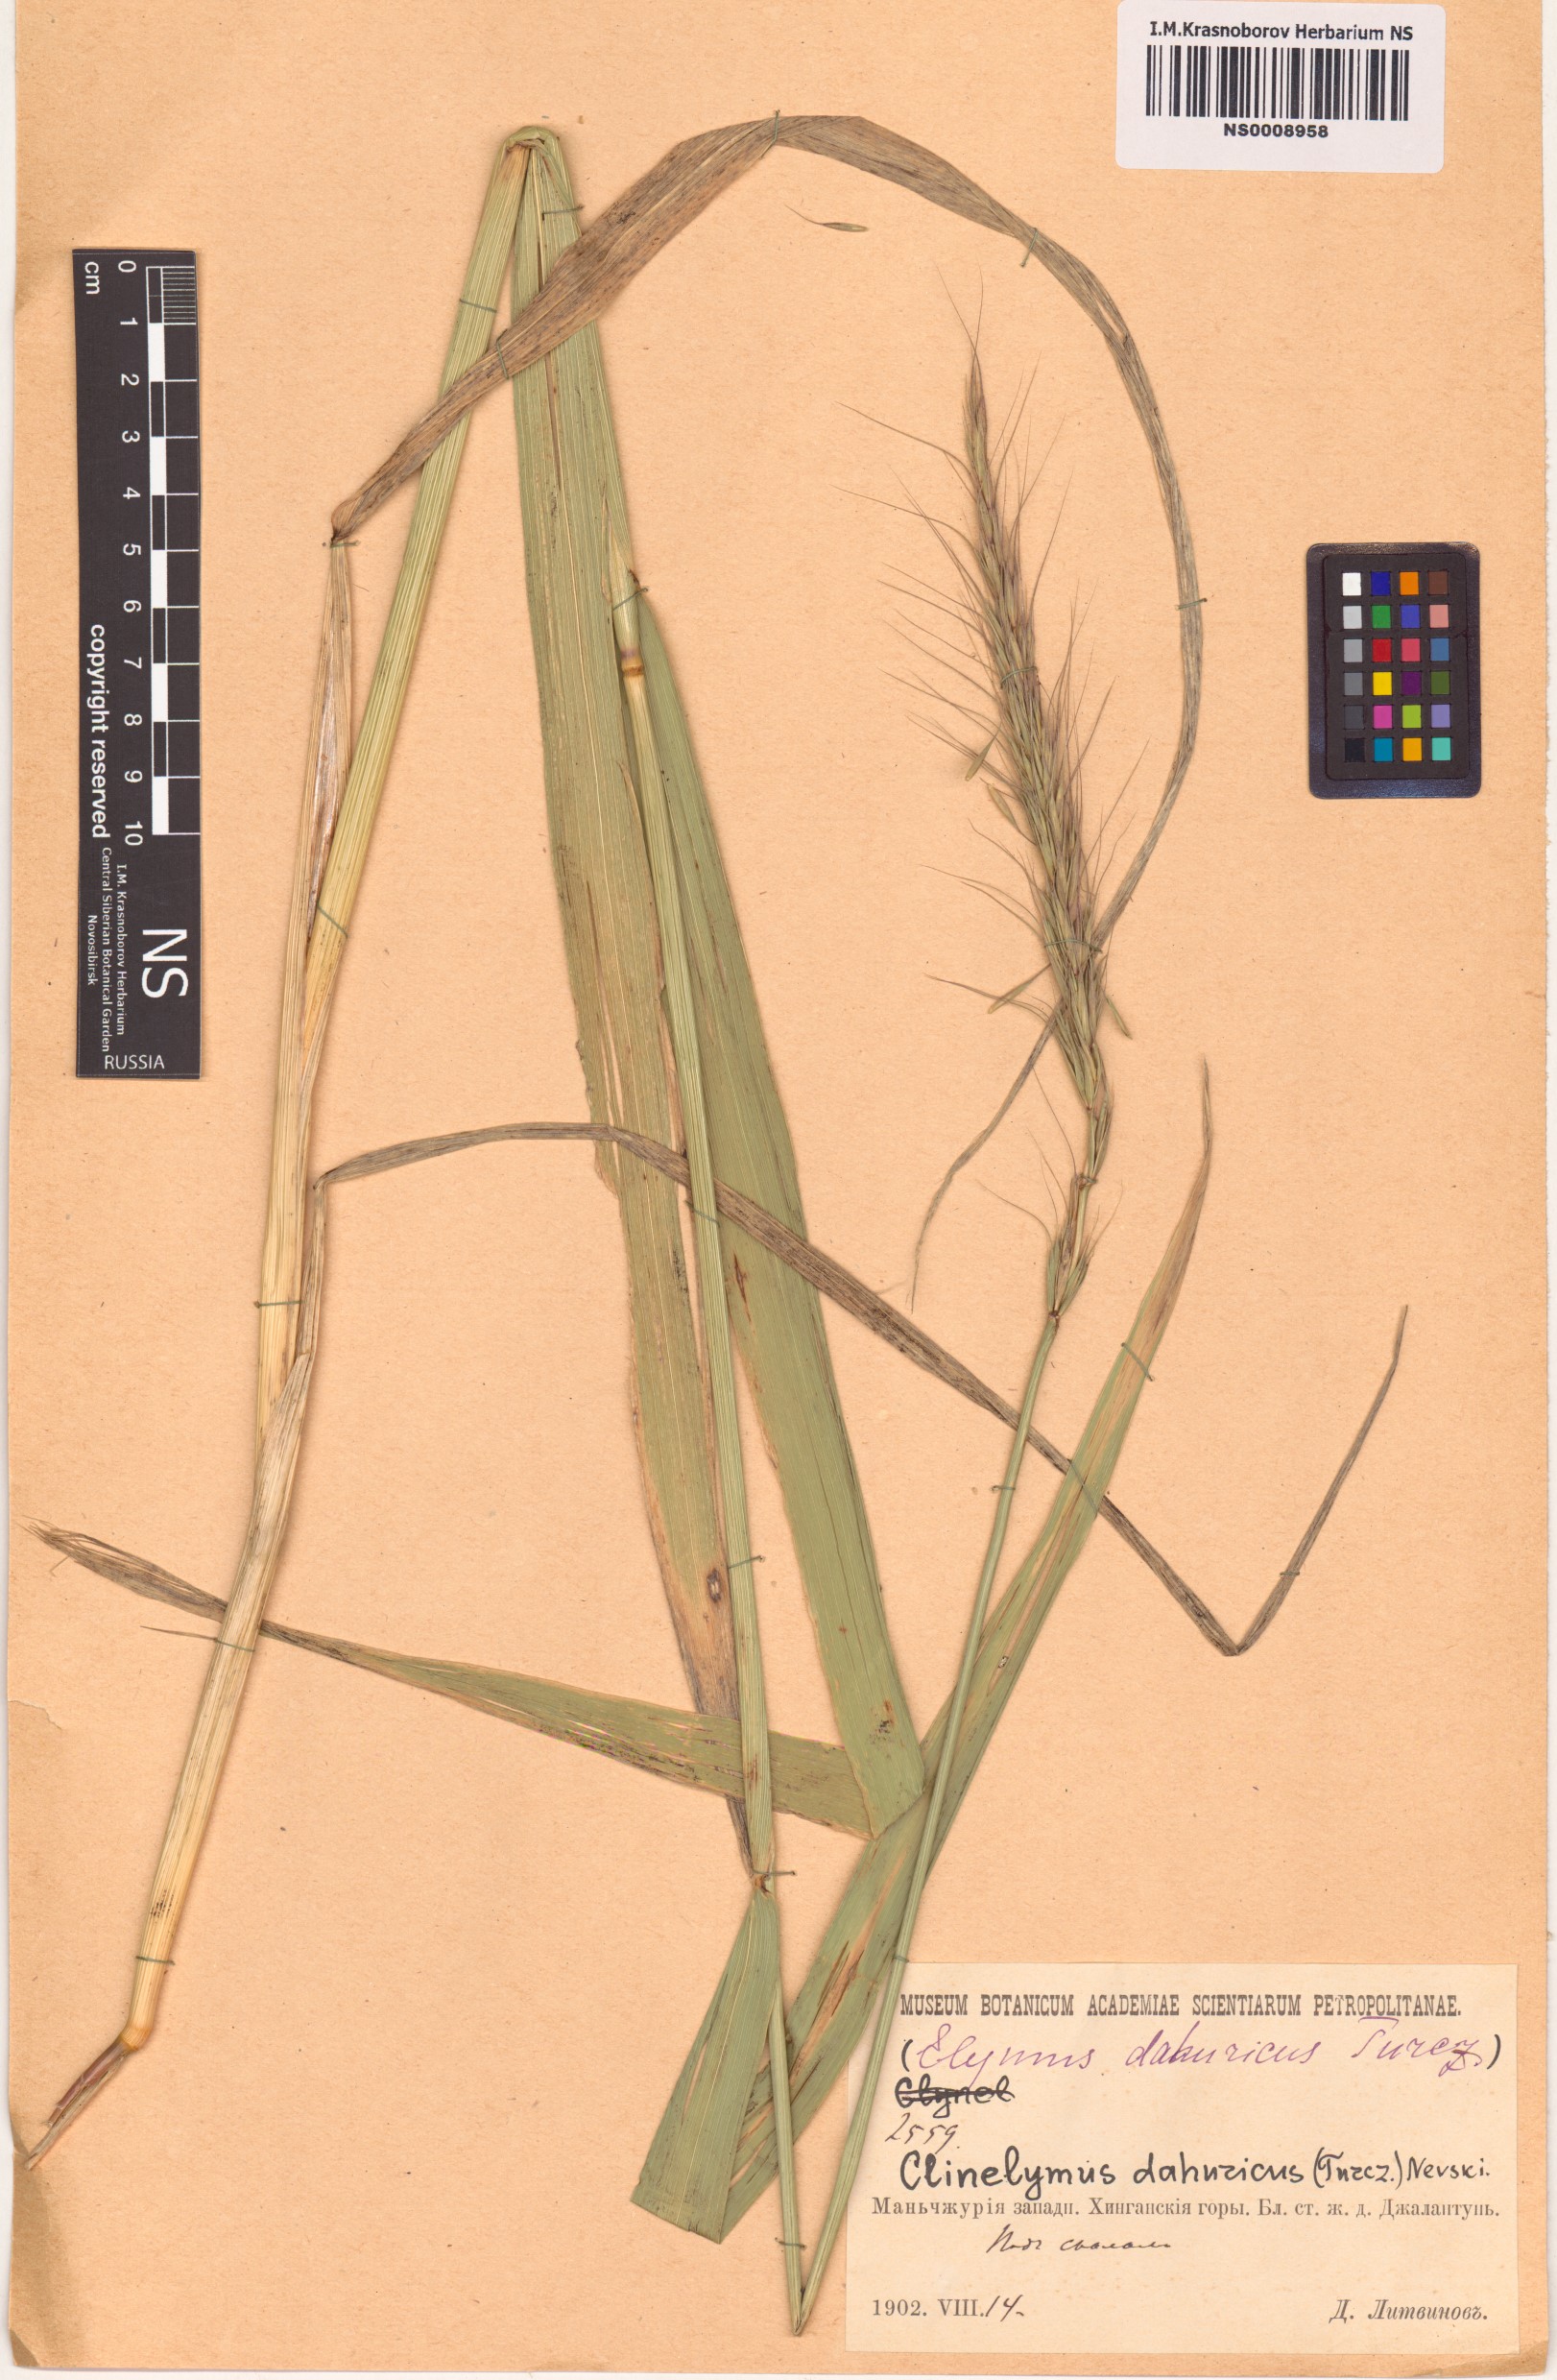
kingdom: Plantae
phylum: Tracheophyta
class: Liliopsida
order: Poales
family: Poaceae
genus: Elymus
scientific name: Elymus dahuricus
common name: Dahurian wild rye
